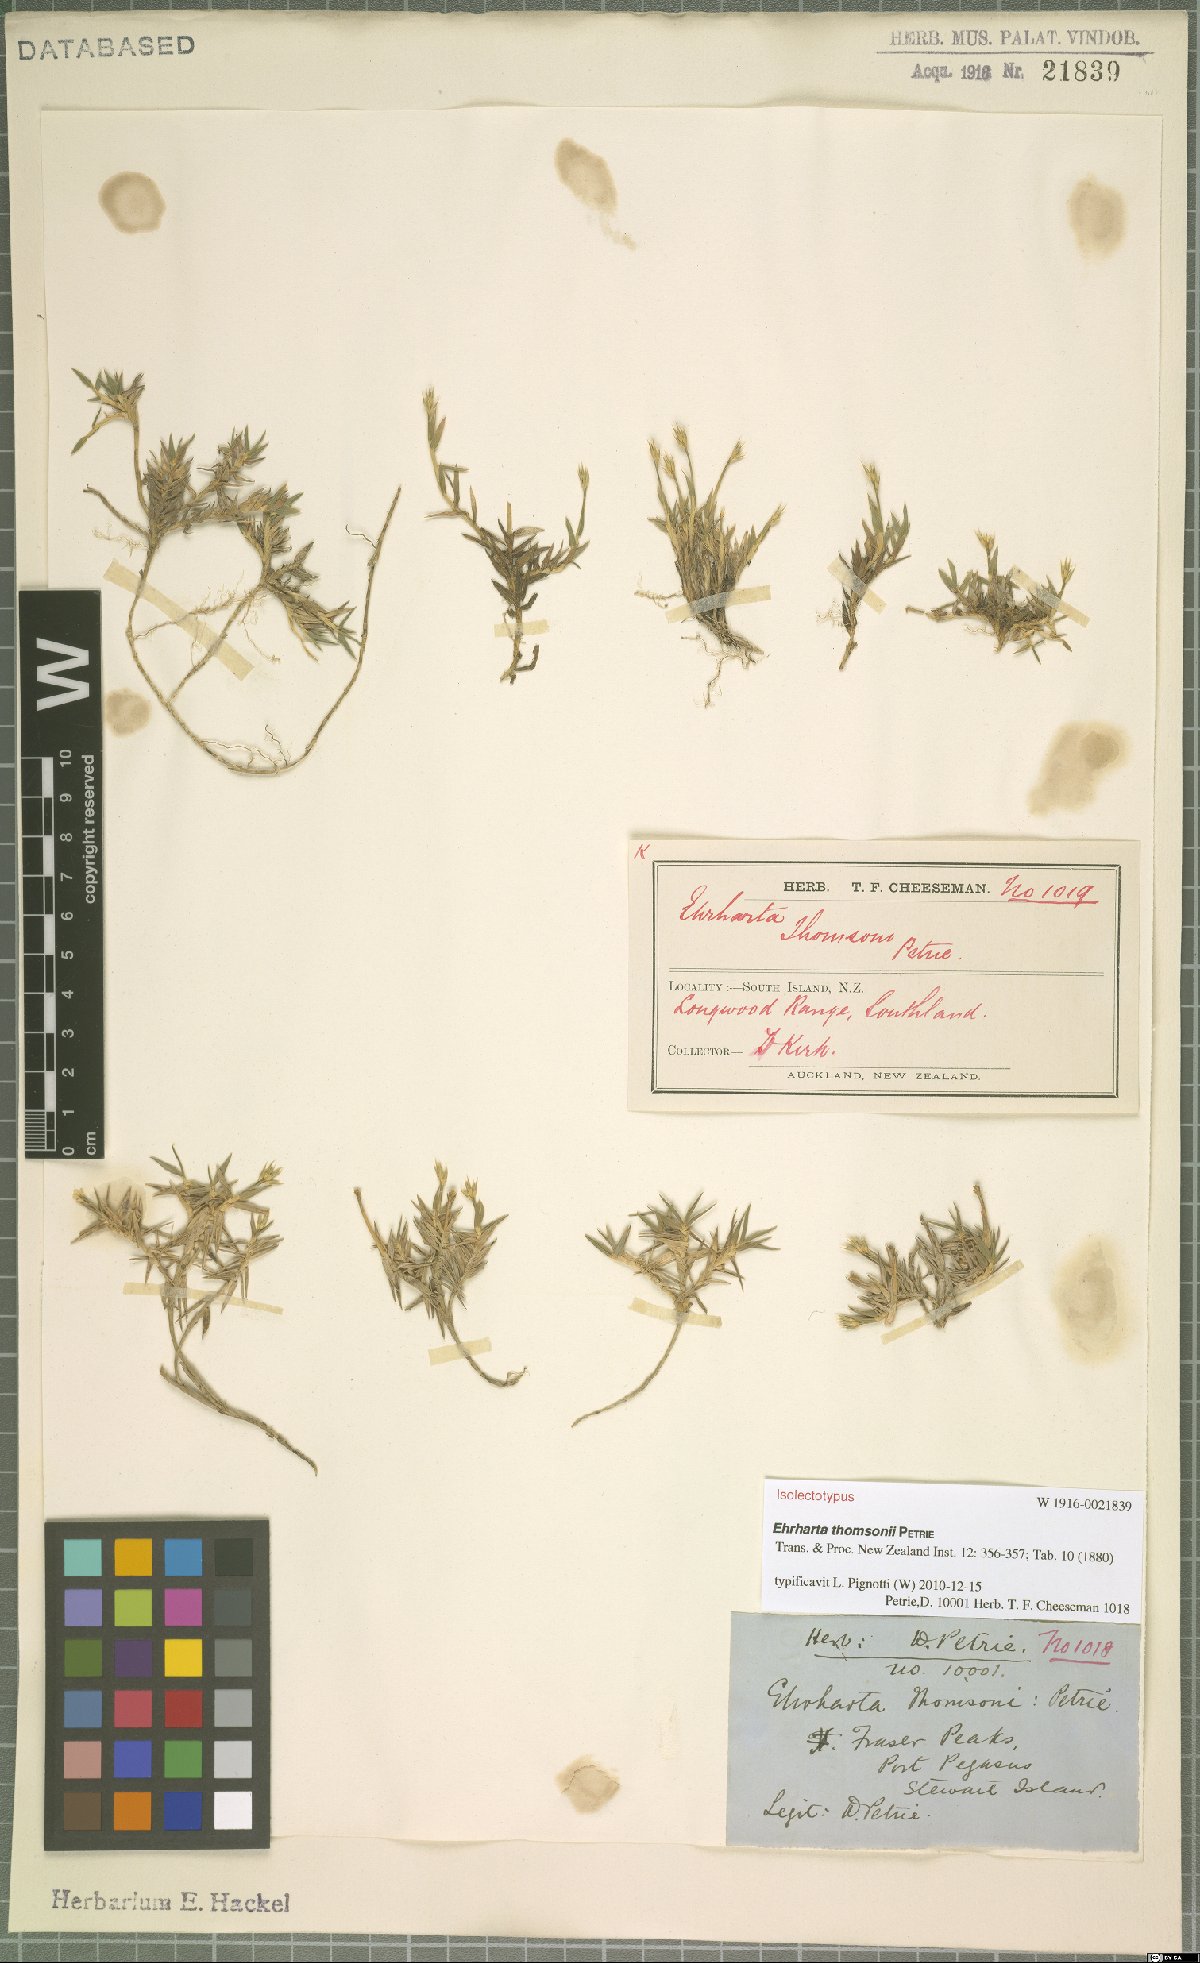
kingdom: Plantae
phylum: Tracheophyta
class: Liliopsida
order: Poales
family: Poaceae
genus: Zotovia
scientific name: Zotovia thomsonii
